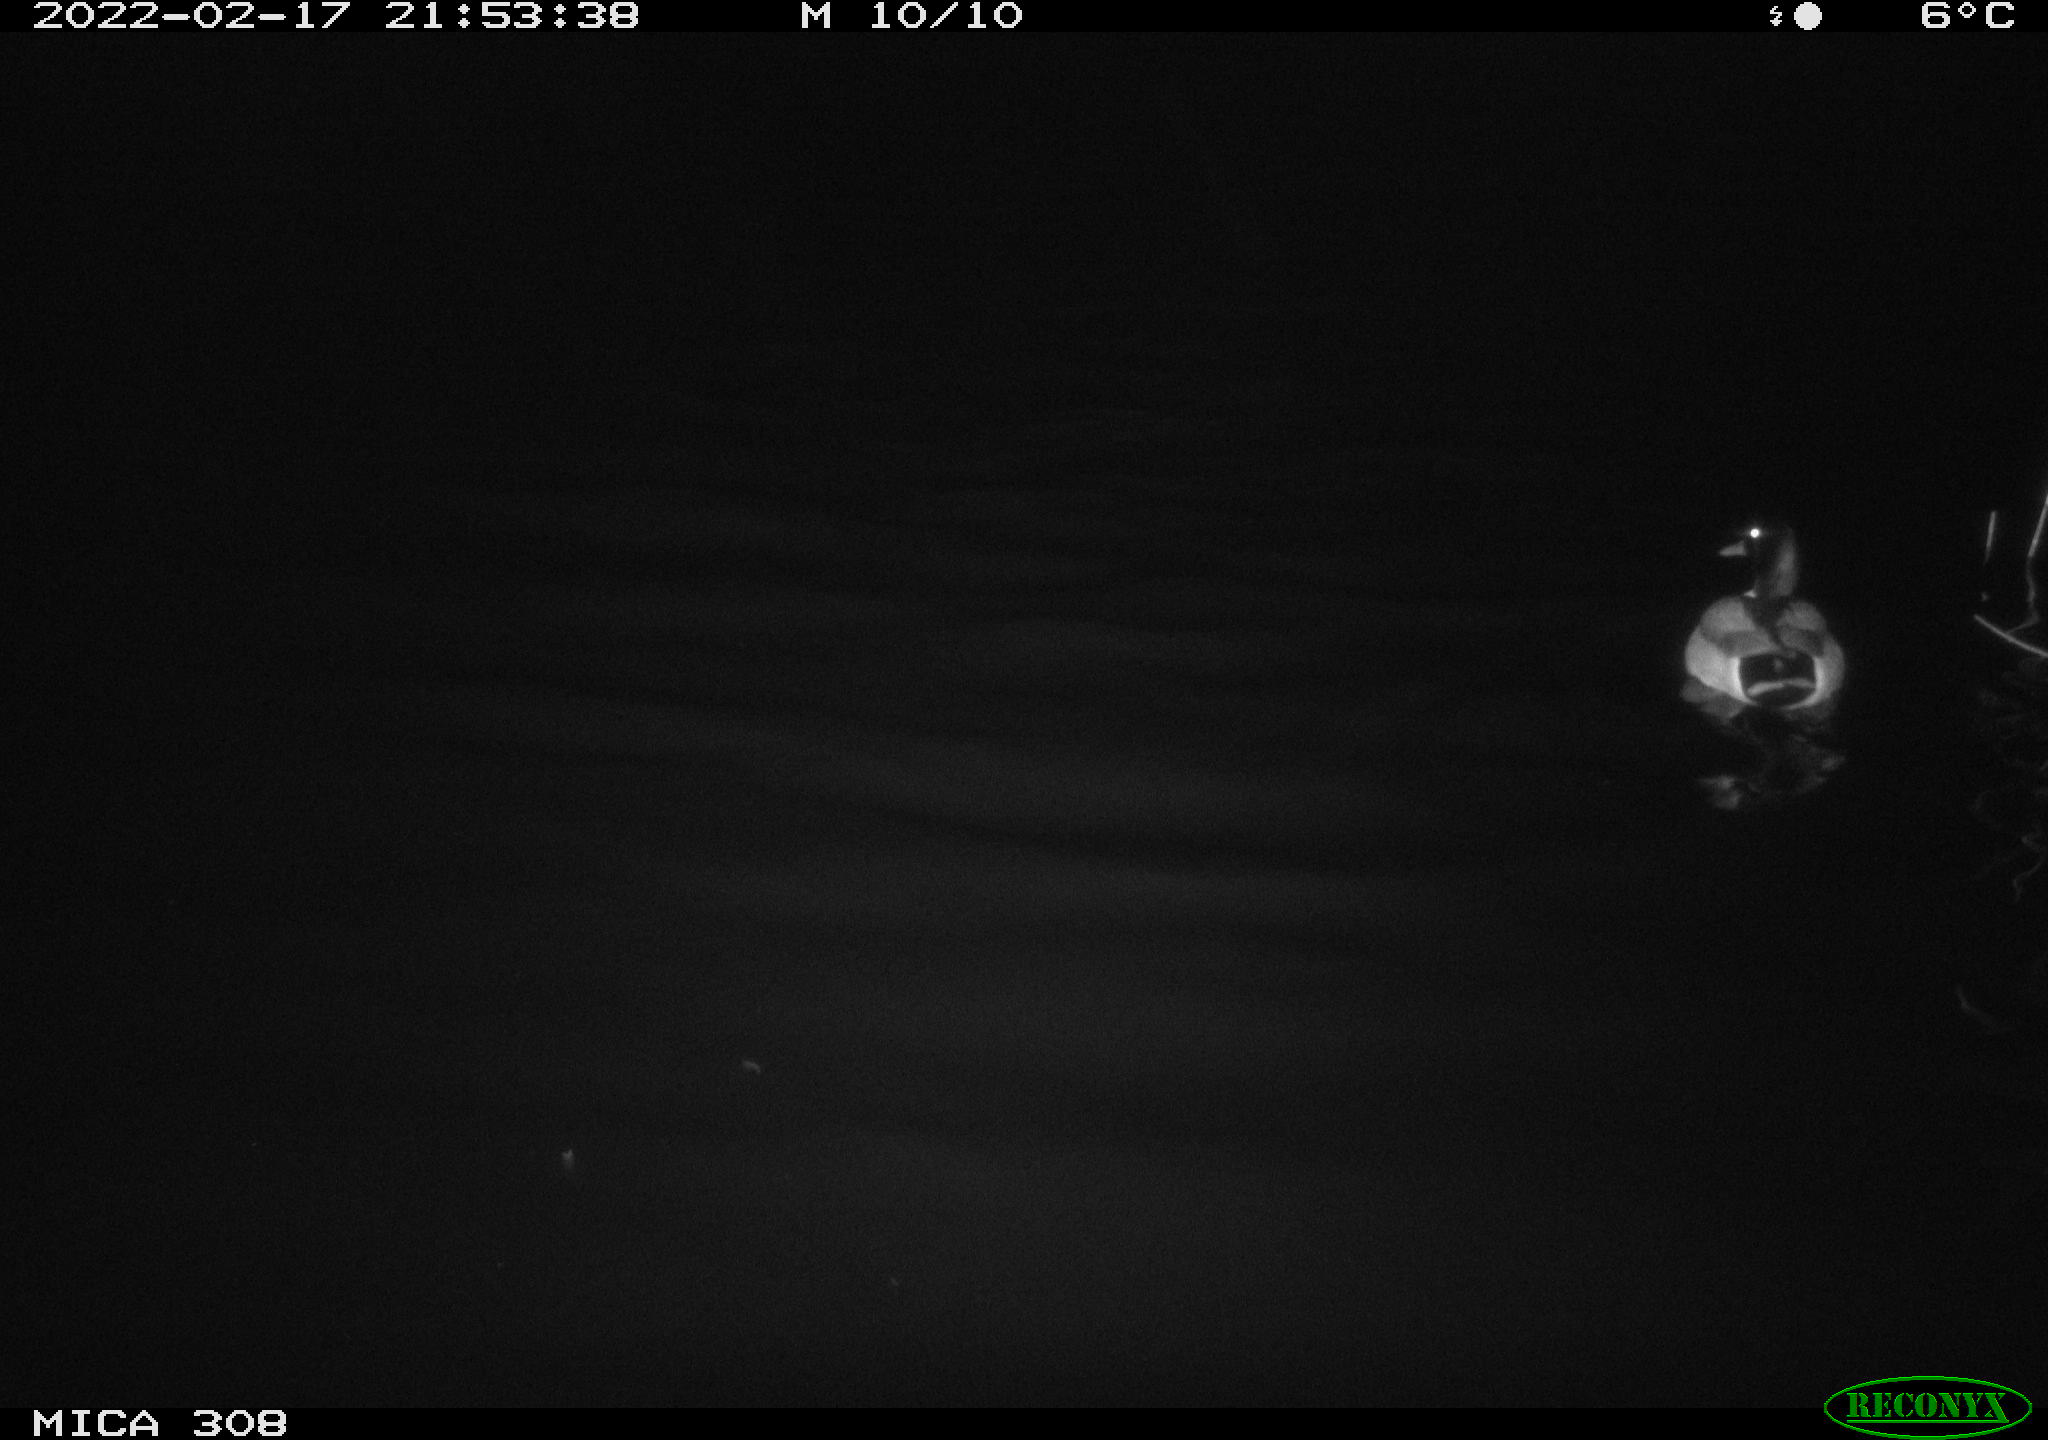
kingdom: Animalia
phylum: Chordata
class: Aves
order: Anseriformes
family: Anatidae
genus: Anas
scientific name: Anas platyrhynchos
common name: Mallard
